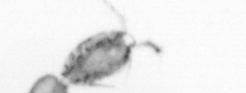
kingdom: Animalia
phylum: Arthropoda
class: Copepoda
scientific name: Copepoda
